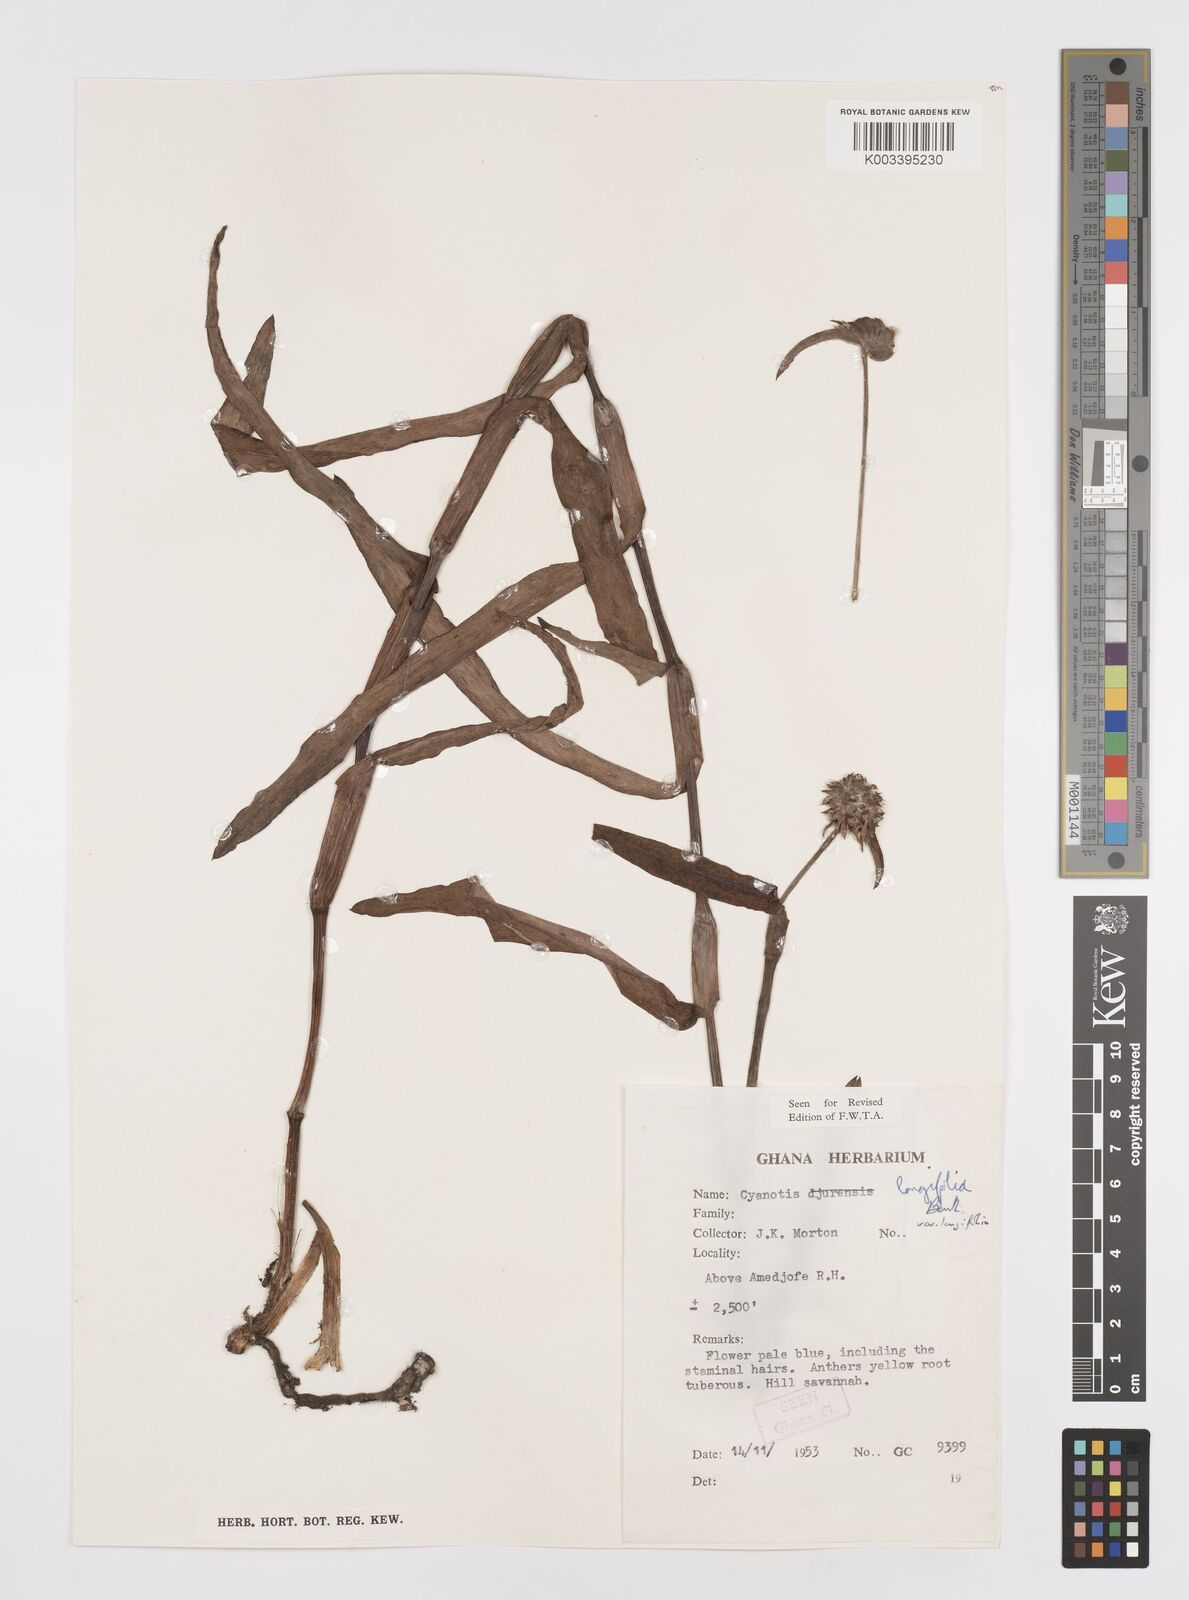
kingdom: Plantae
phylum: Tracheophyta
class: Liliopsida
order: Commelinales
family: Commelinaceae
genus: Cyanotis
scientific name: Cyanotis
